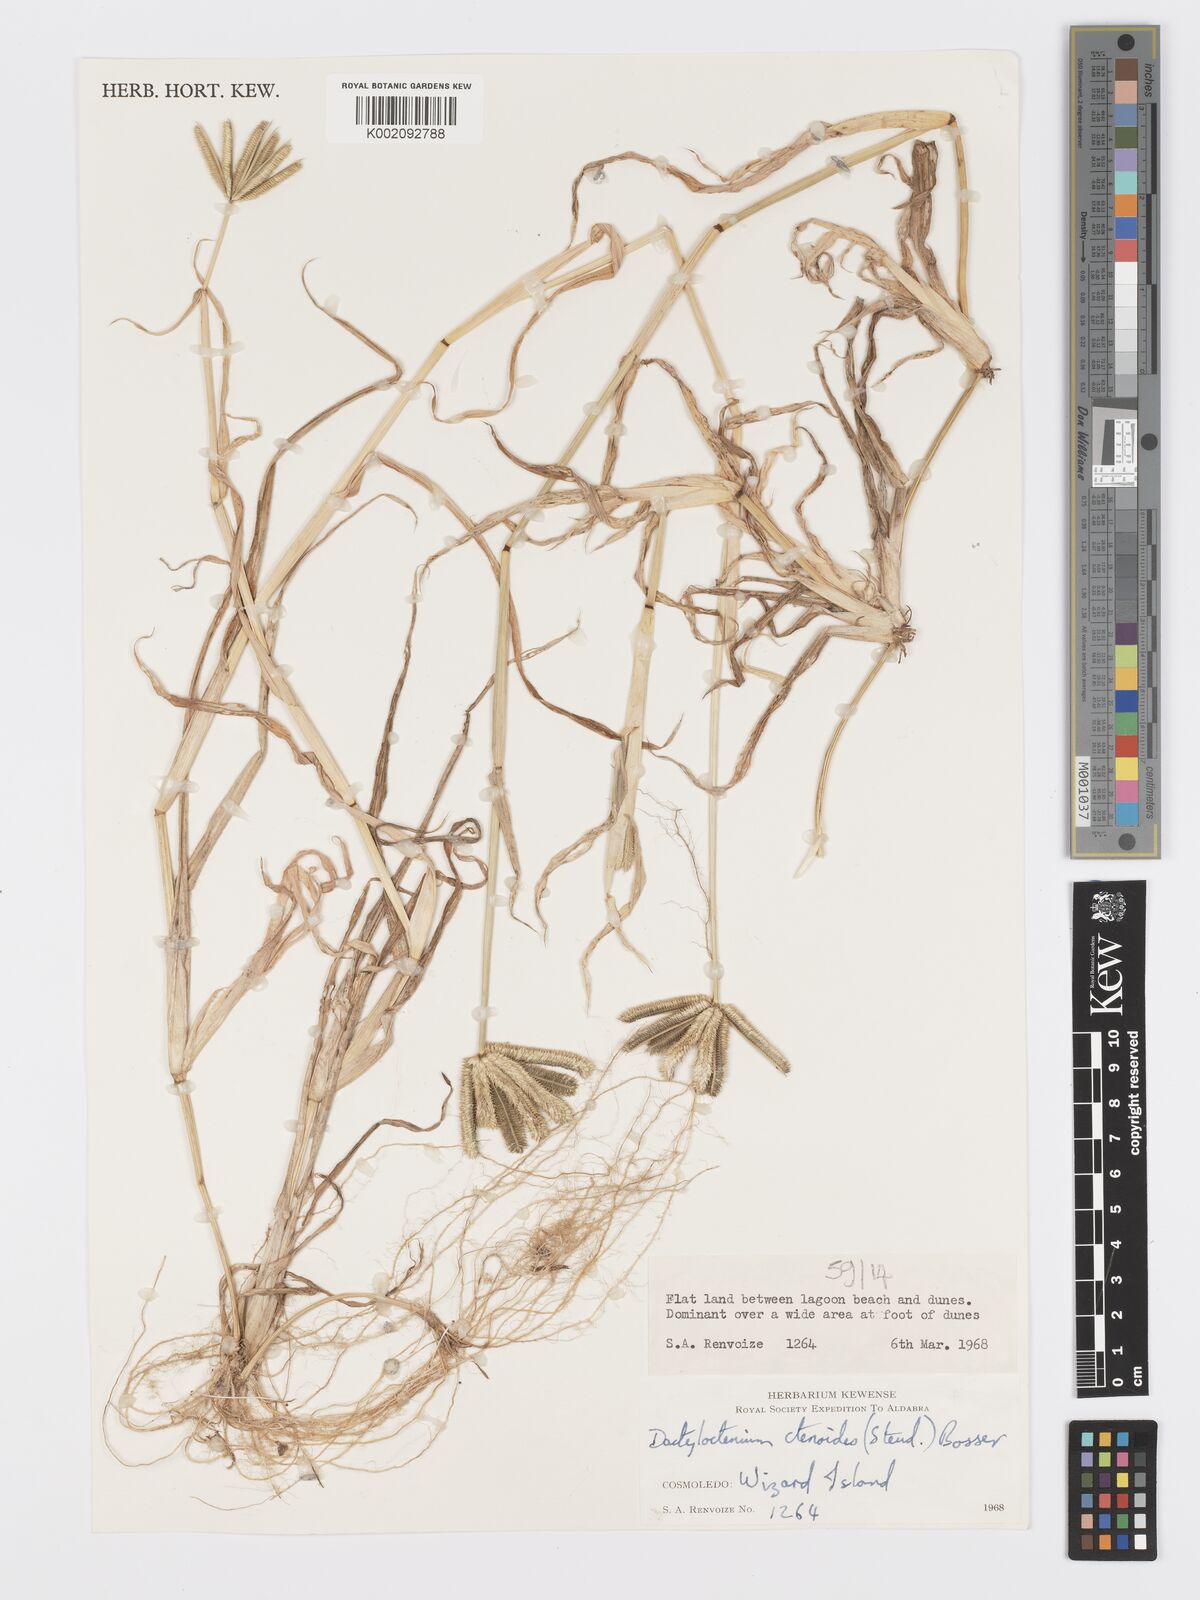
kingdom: Plantae
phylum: Tracheophyta
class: Liliopsida
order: Poales
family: Poaceae
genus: Dactyloctenium
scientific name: Dactyloctenium ctenoides
